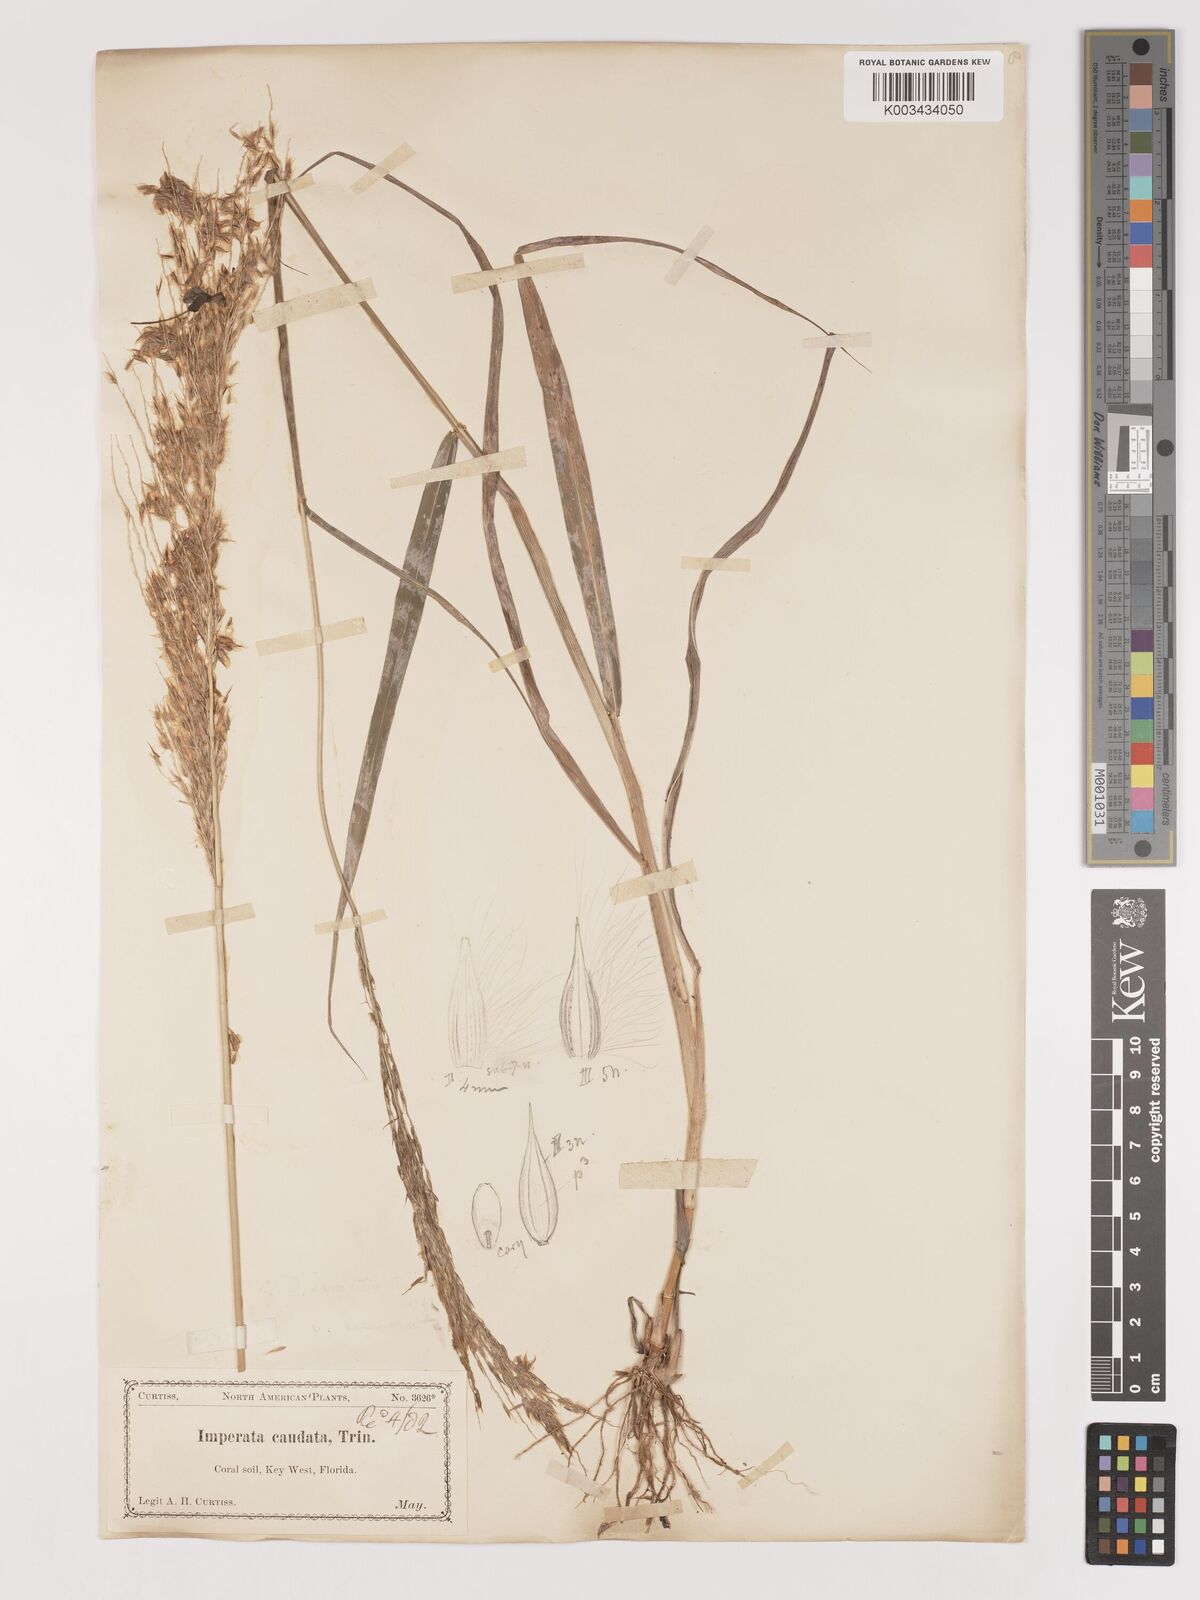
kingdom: Plantae
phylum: Tracheophyta
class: Liliopsida
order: Poales
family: Poaceae
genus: Digitaria
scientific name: Digitaria insularis
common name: Sourgrass
